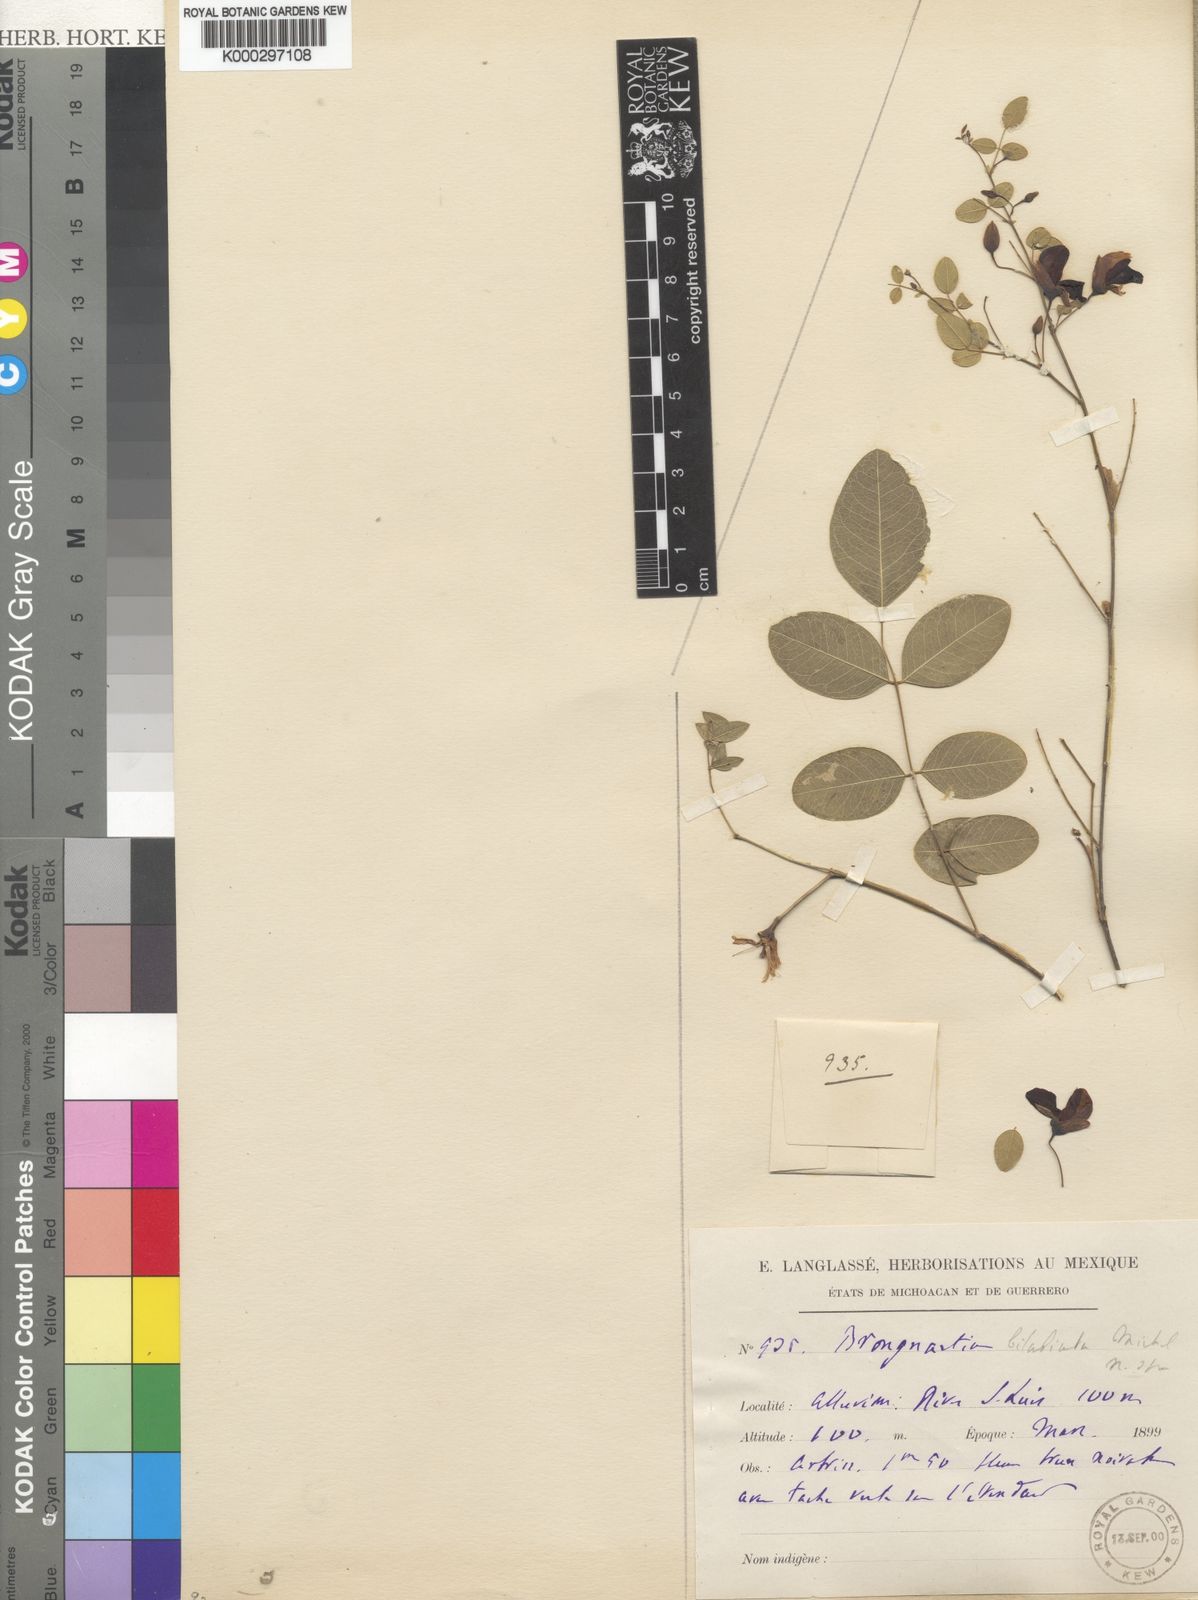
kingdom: Plantae
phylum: Tracheophyta
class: Magnoliopsida
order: Fabales
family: Fabaceae
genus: Brongniartia
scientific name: Brongniartia podalyrioides
